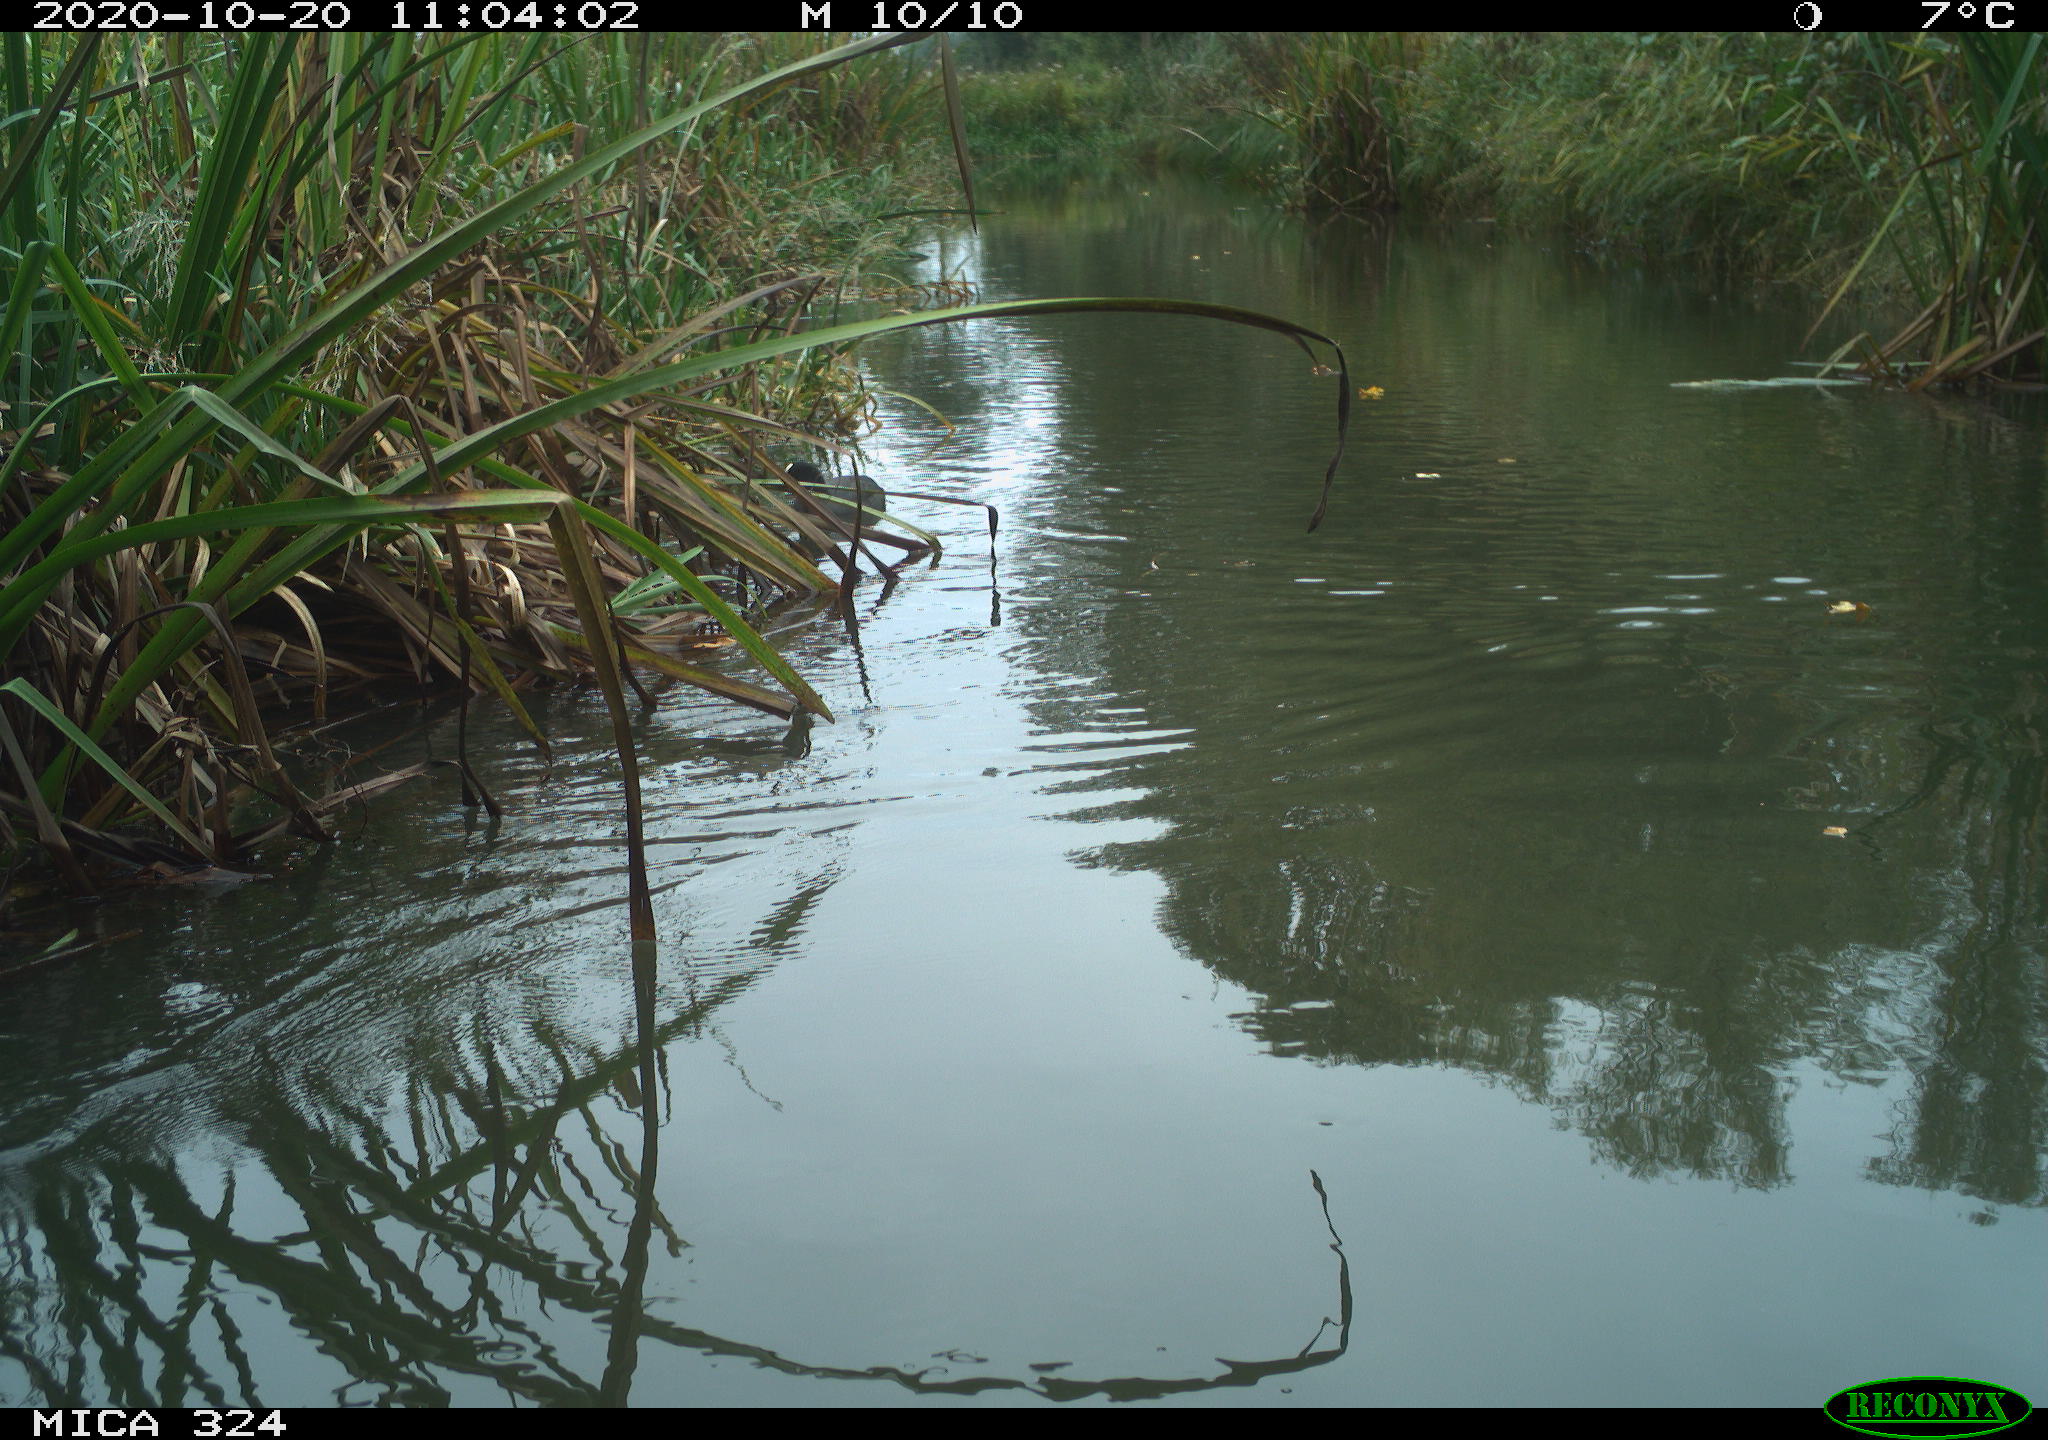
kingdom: Animalia
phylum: Chordata
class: Aves
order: Gruiformes
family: Rallidae
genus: Fulica
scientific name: Fulica atra
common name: Eurasian coot
